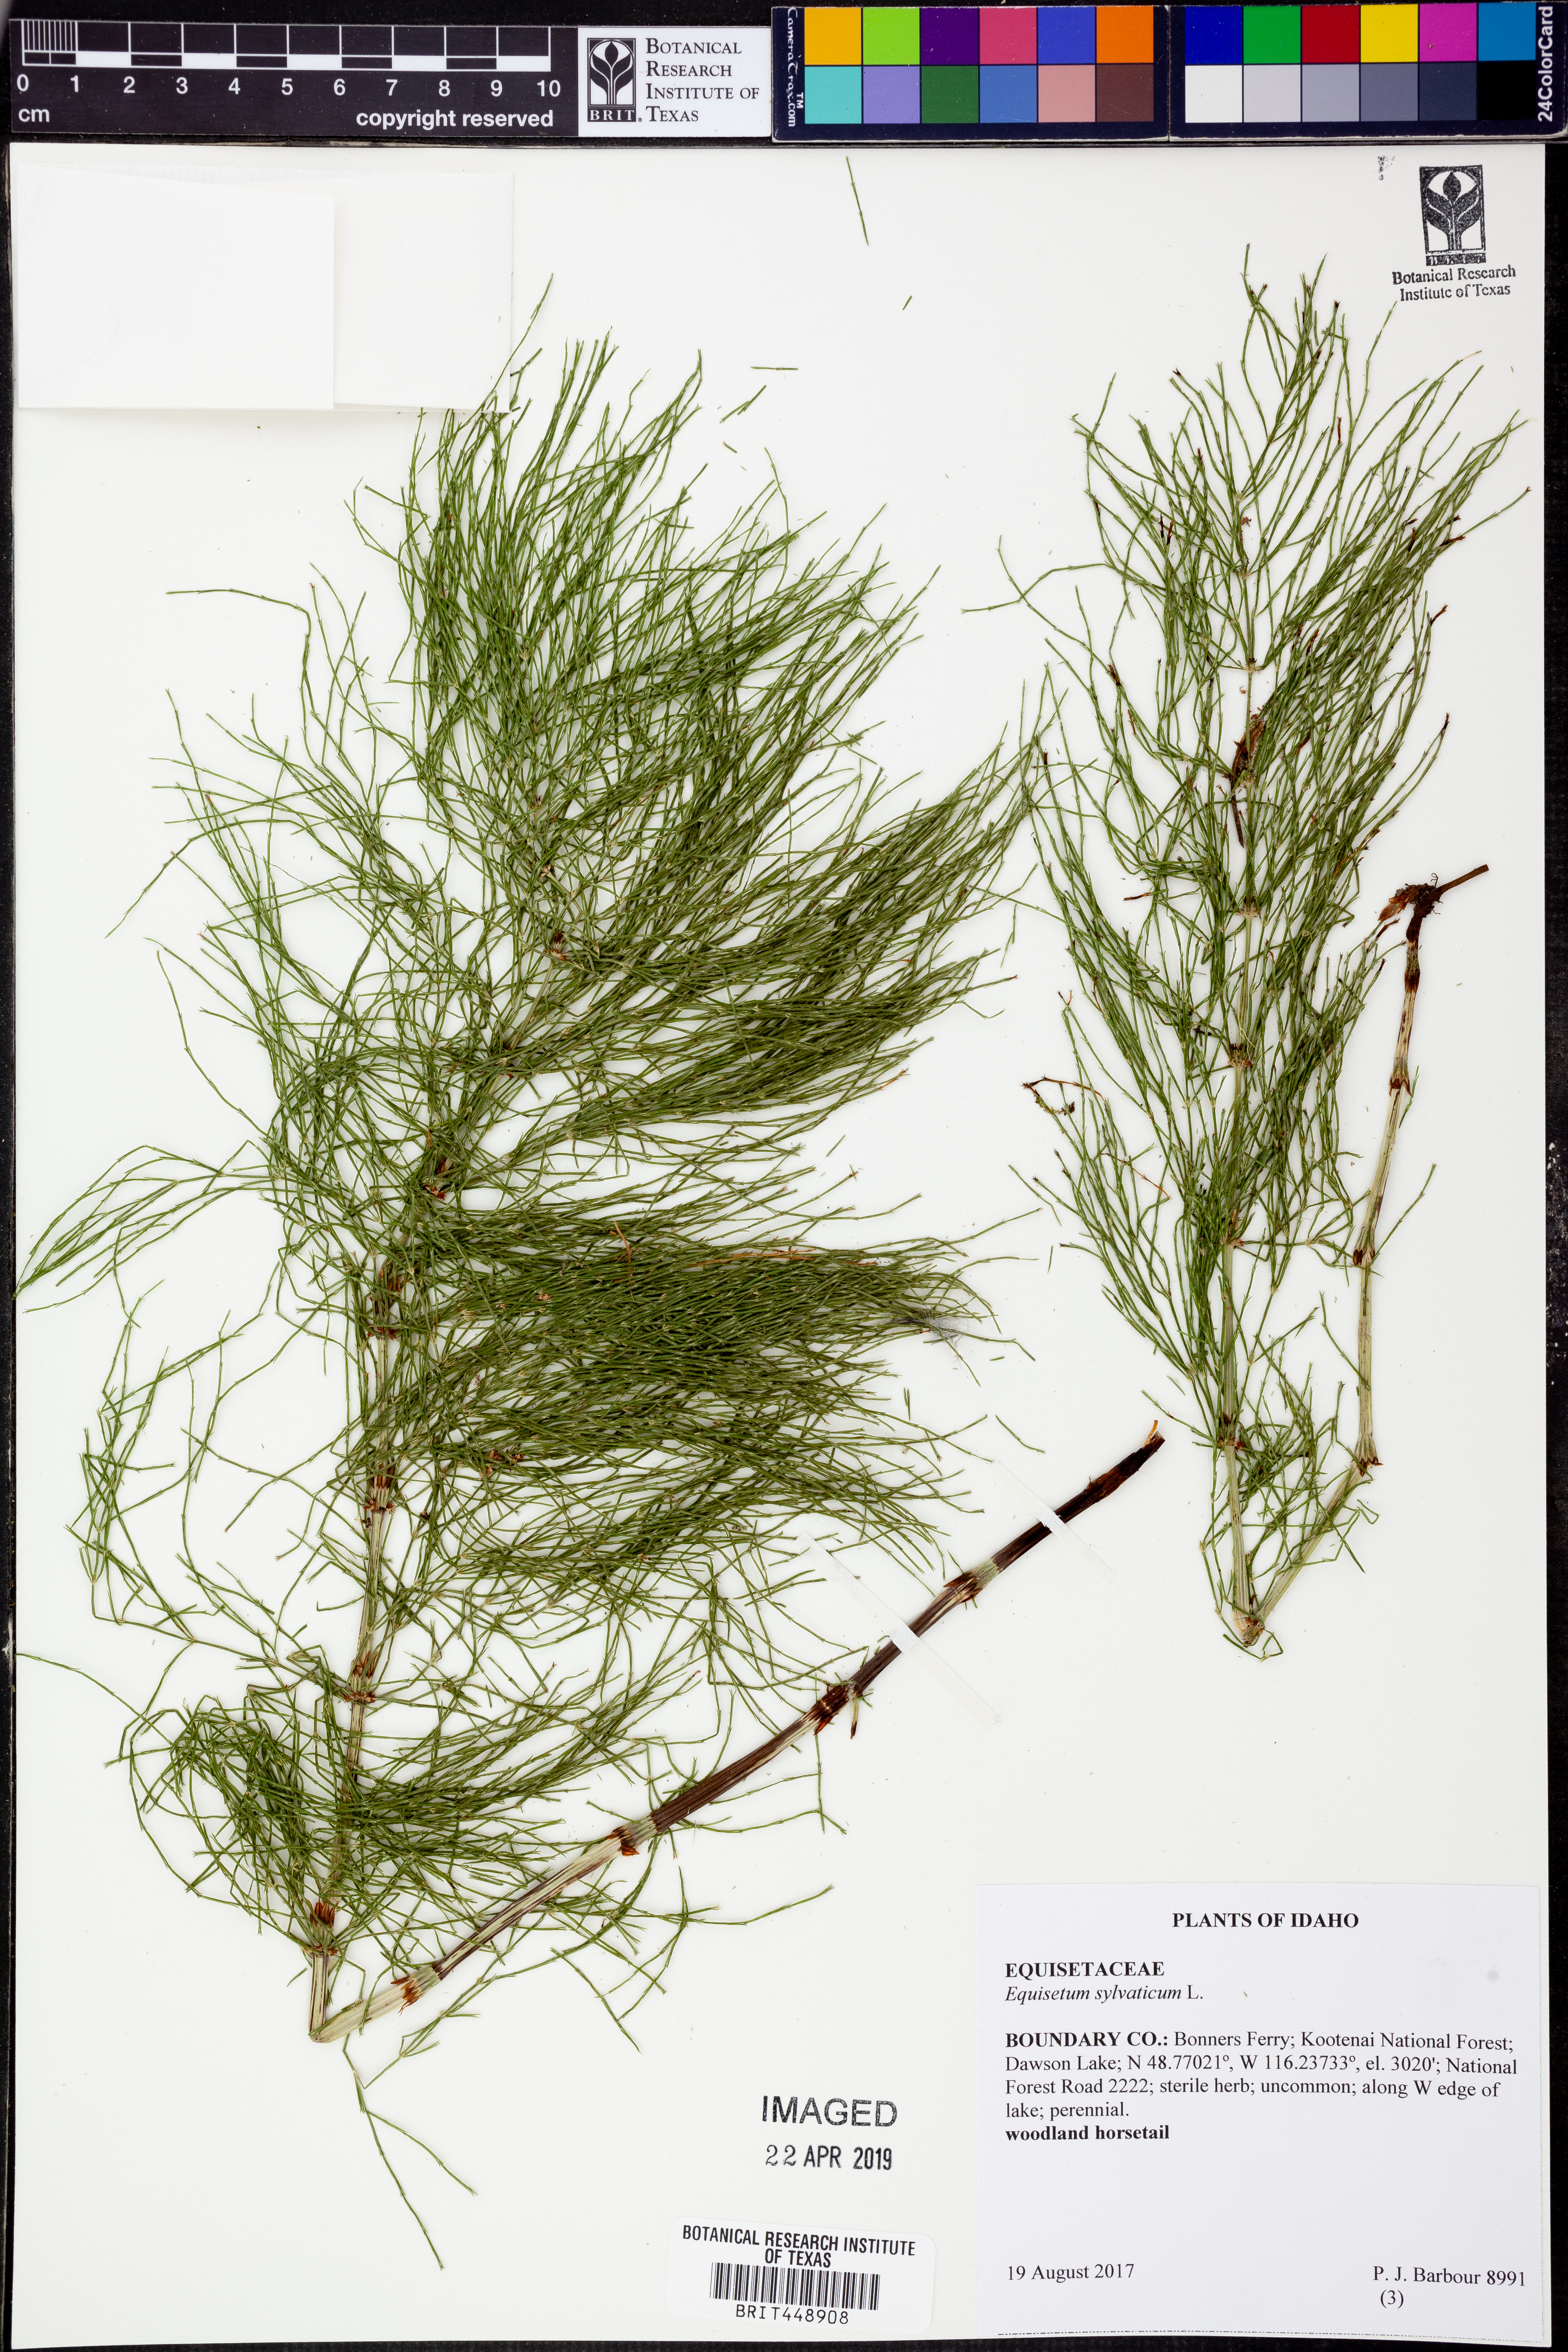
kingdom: Plantae
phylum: Tracheophyta
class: Polypodiopsida
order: Equisetales
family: Equisetaceae
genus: Equisetum
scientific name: Equisetum sylvaticum
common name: Wood horsetail
